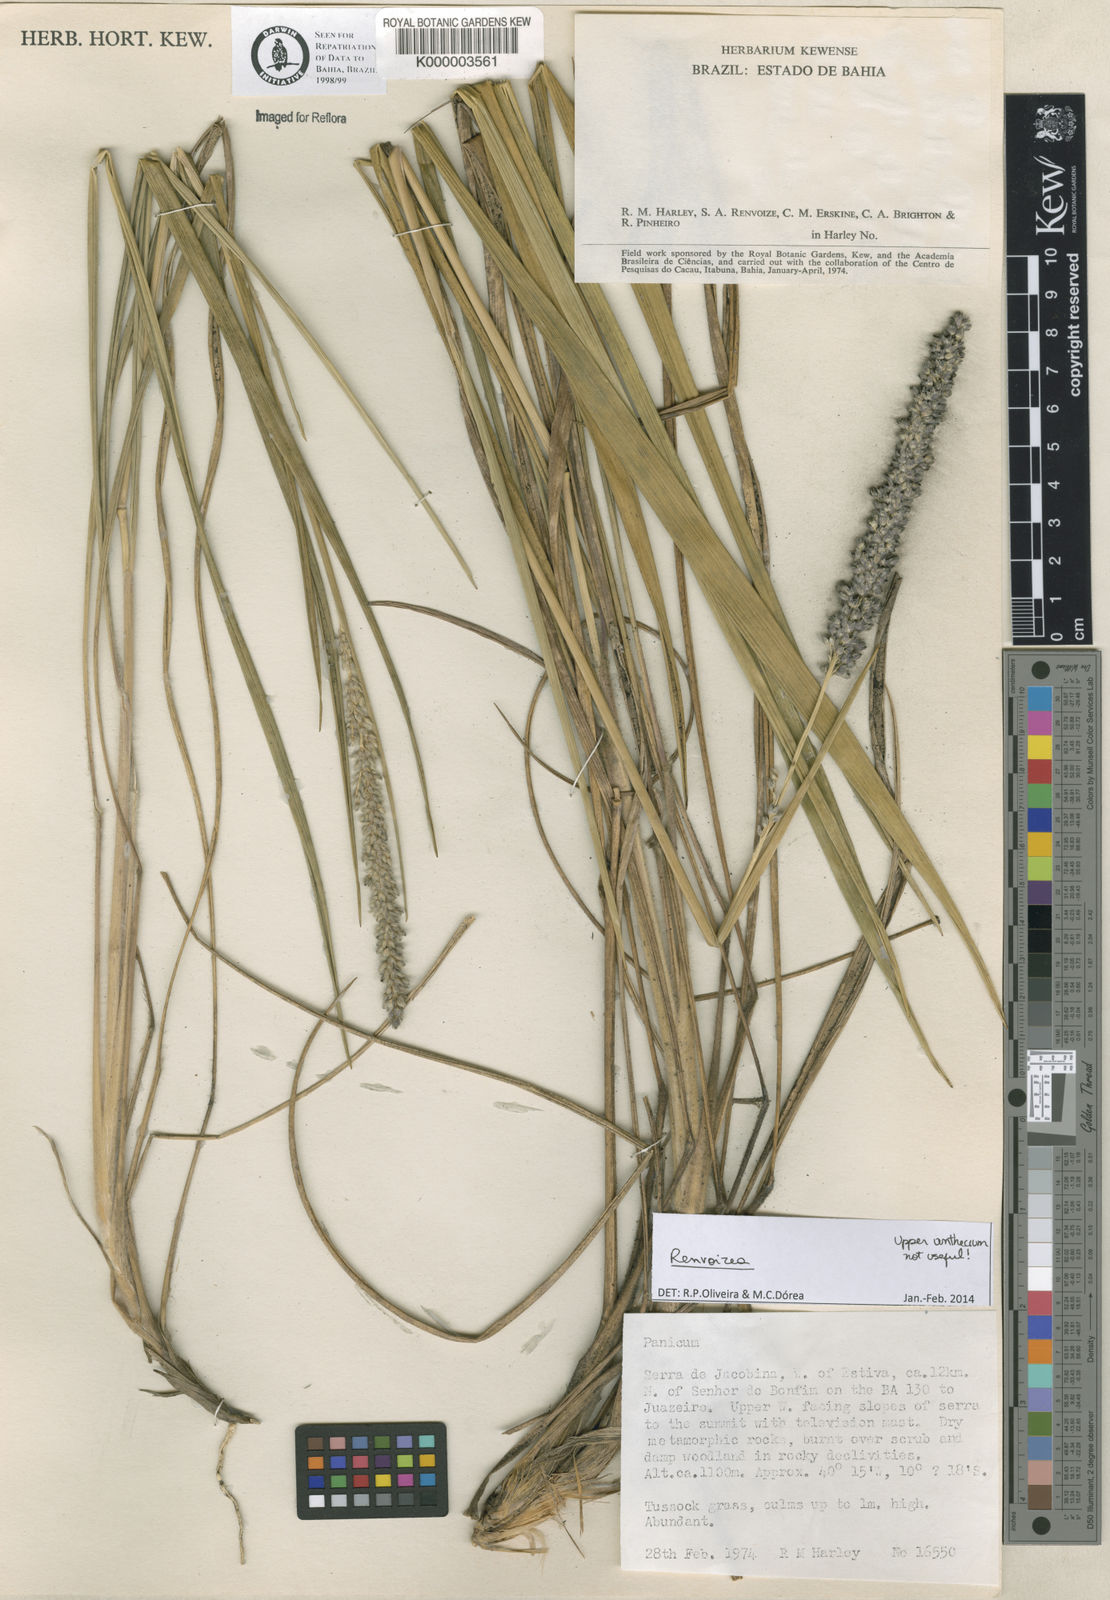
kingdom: Plantae
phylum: Tracheophyta
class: Liliopsida
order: Poales
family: Poaceae
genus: Renvoizea
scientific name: Renvoizea lagostachya
